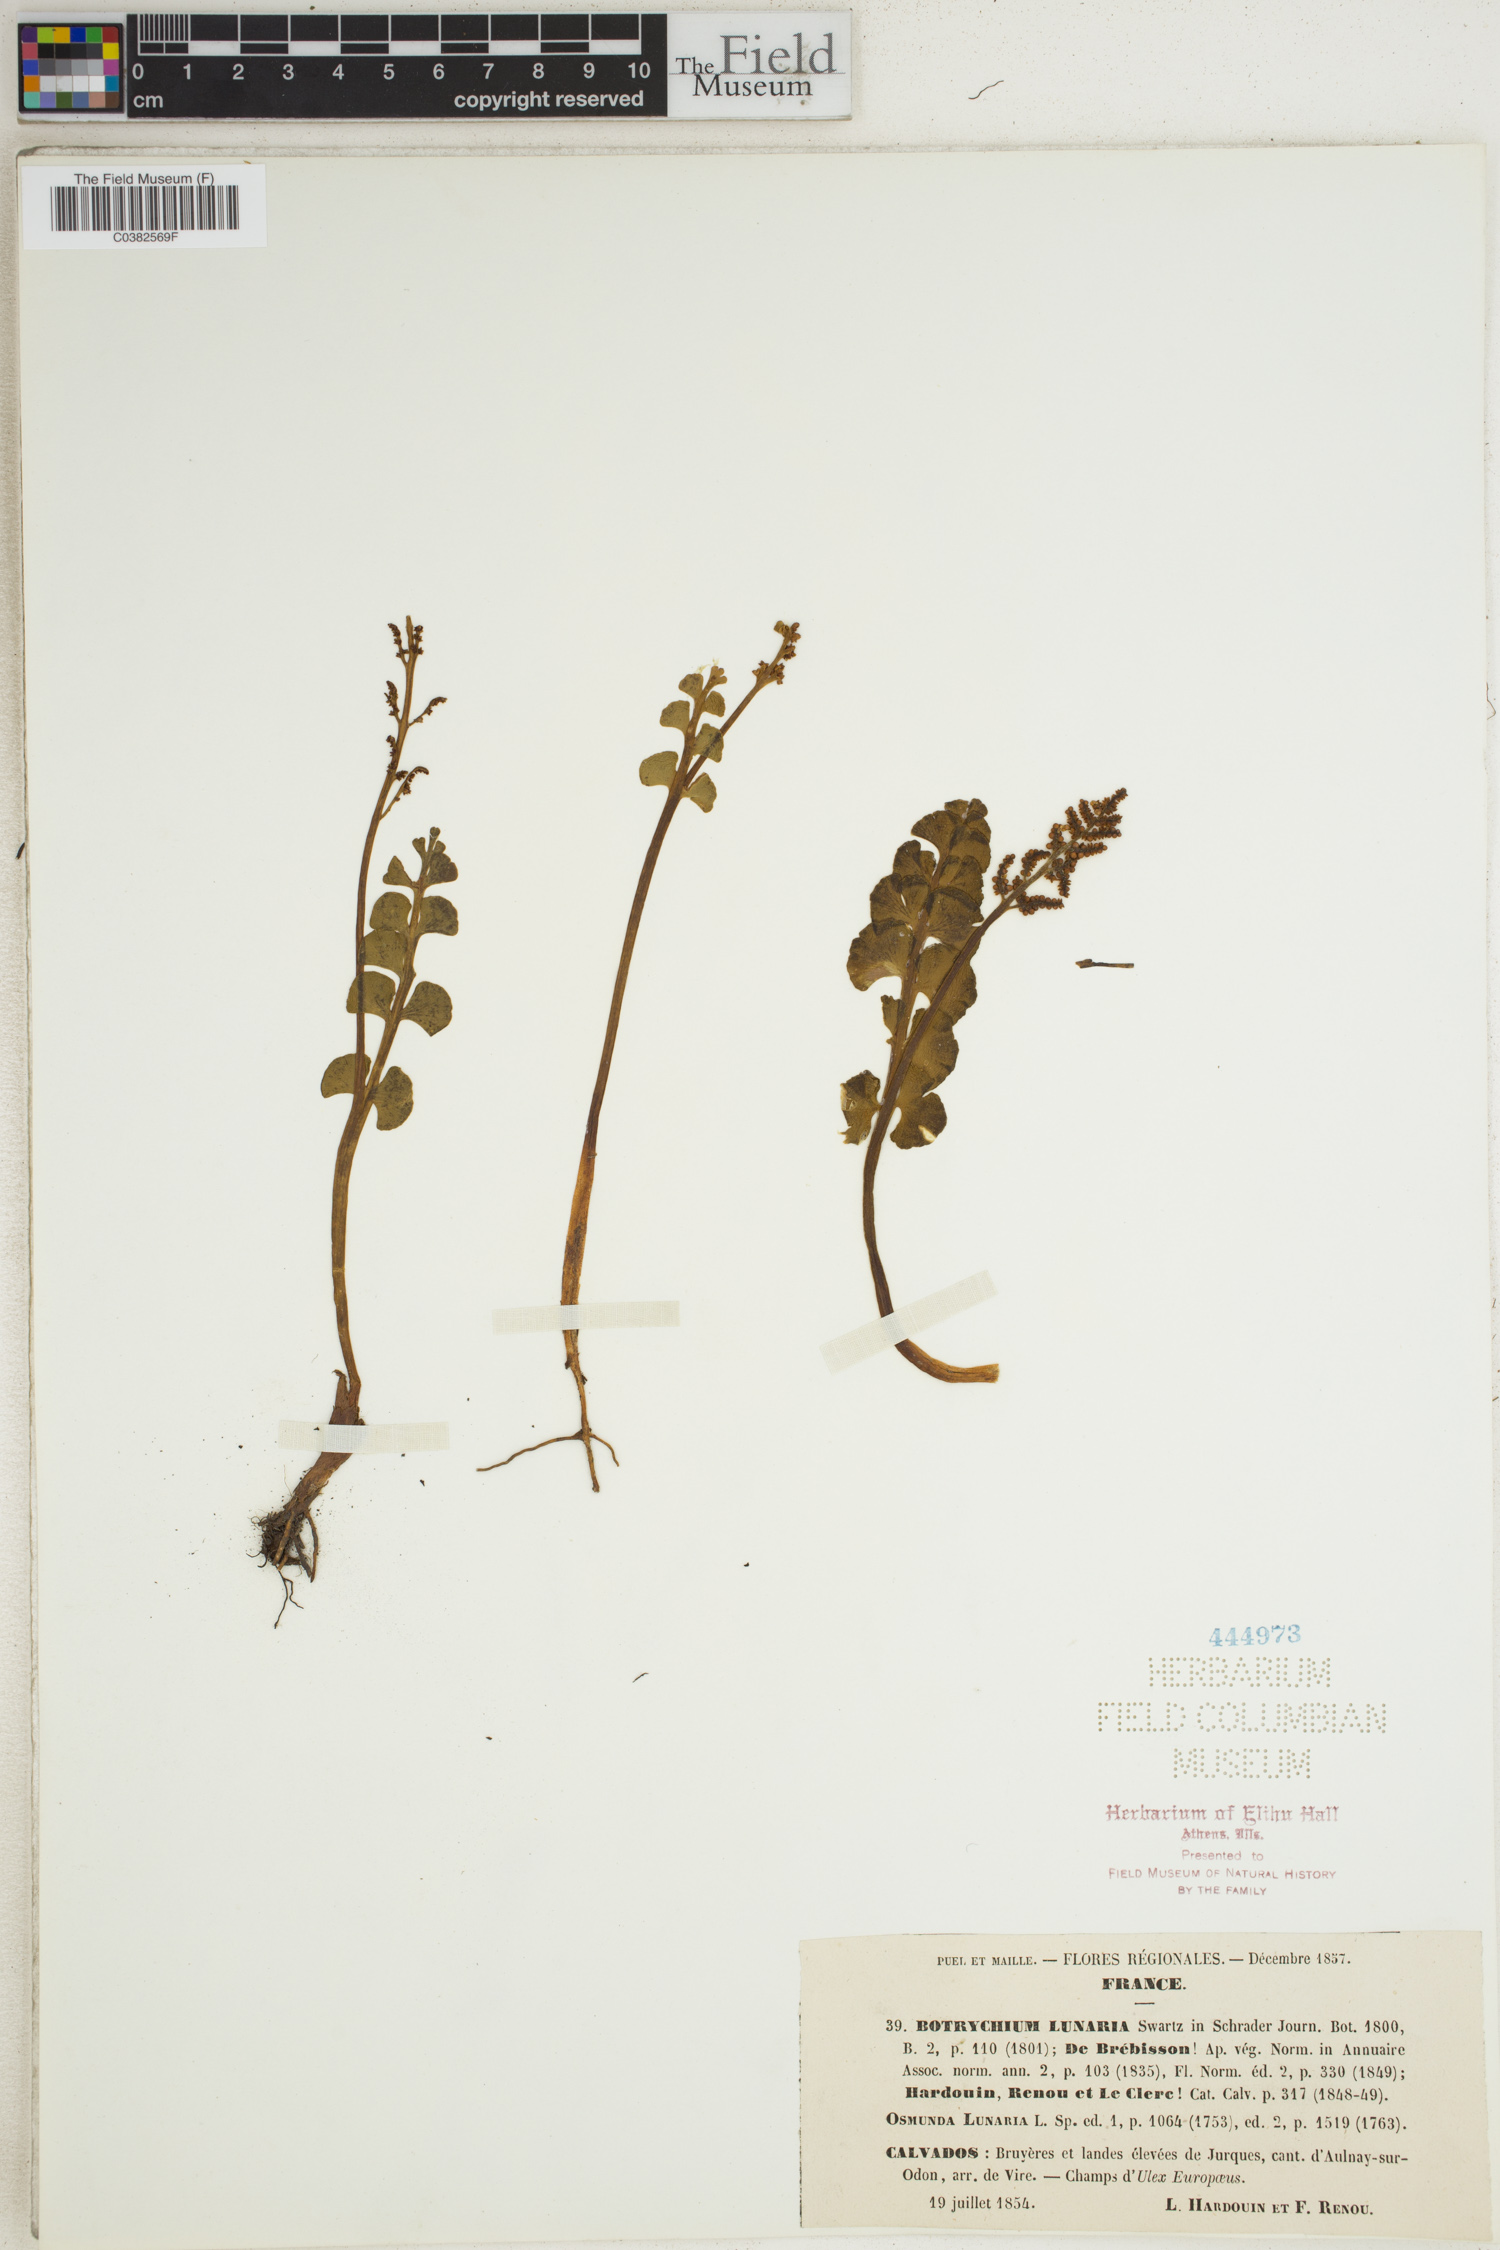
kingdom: Plantae
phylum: Tracheophyta
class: Polypodiopsida
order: Ophioglossales
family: Ophioglossaceae
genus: Botrychium
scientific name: Botrychium lunaria
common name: Moonwort
